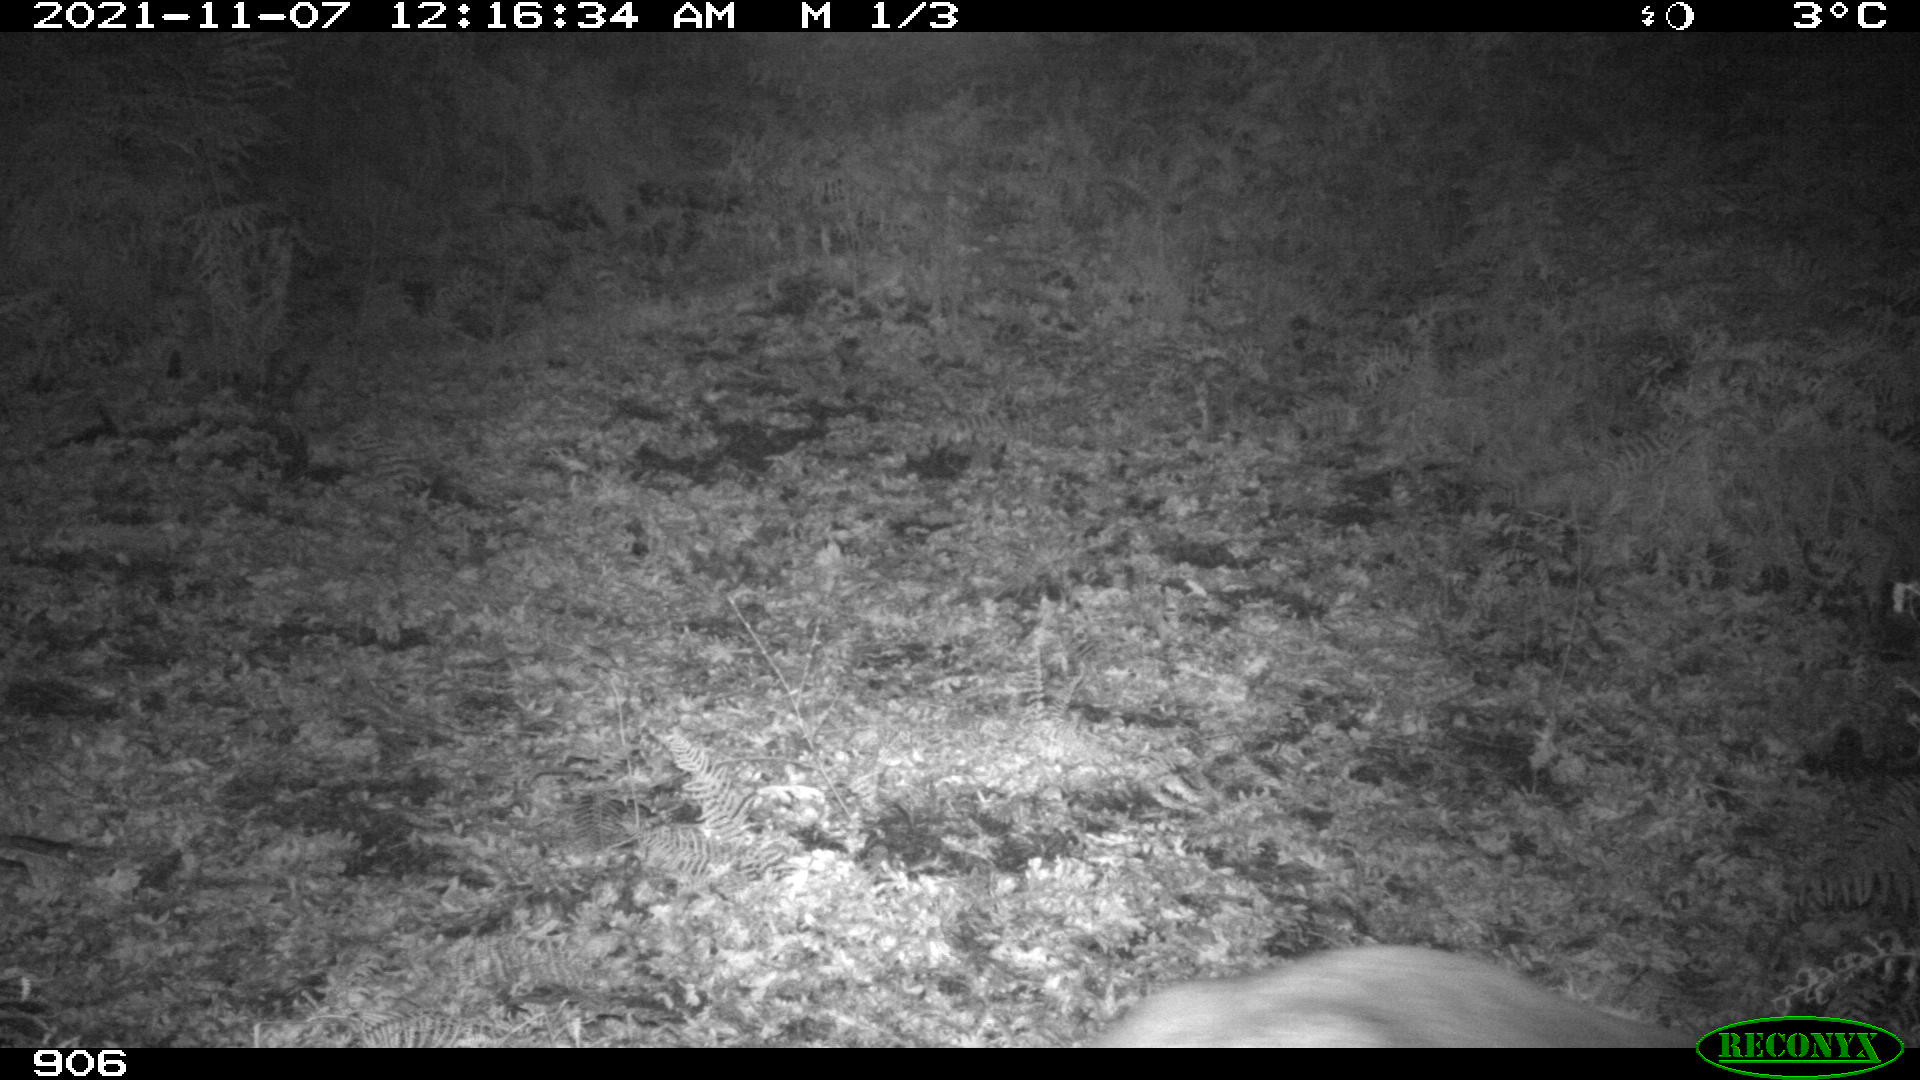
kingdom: Animalia
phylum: Chordata
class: Mammalia
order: Artiodactyla
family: Cervidae
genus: Capreolus
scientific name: Capreolus capreolus
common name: Western roe deer
